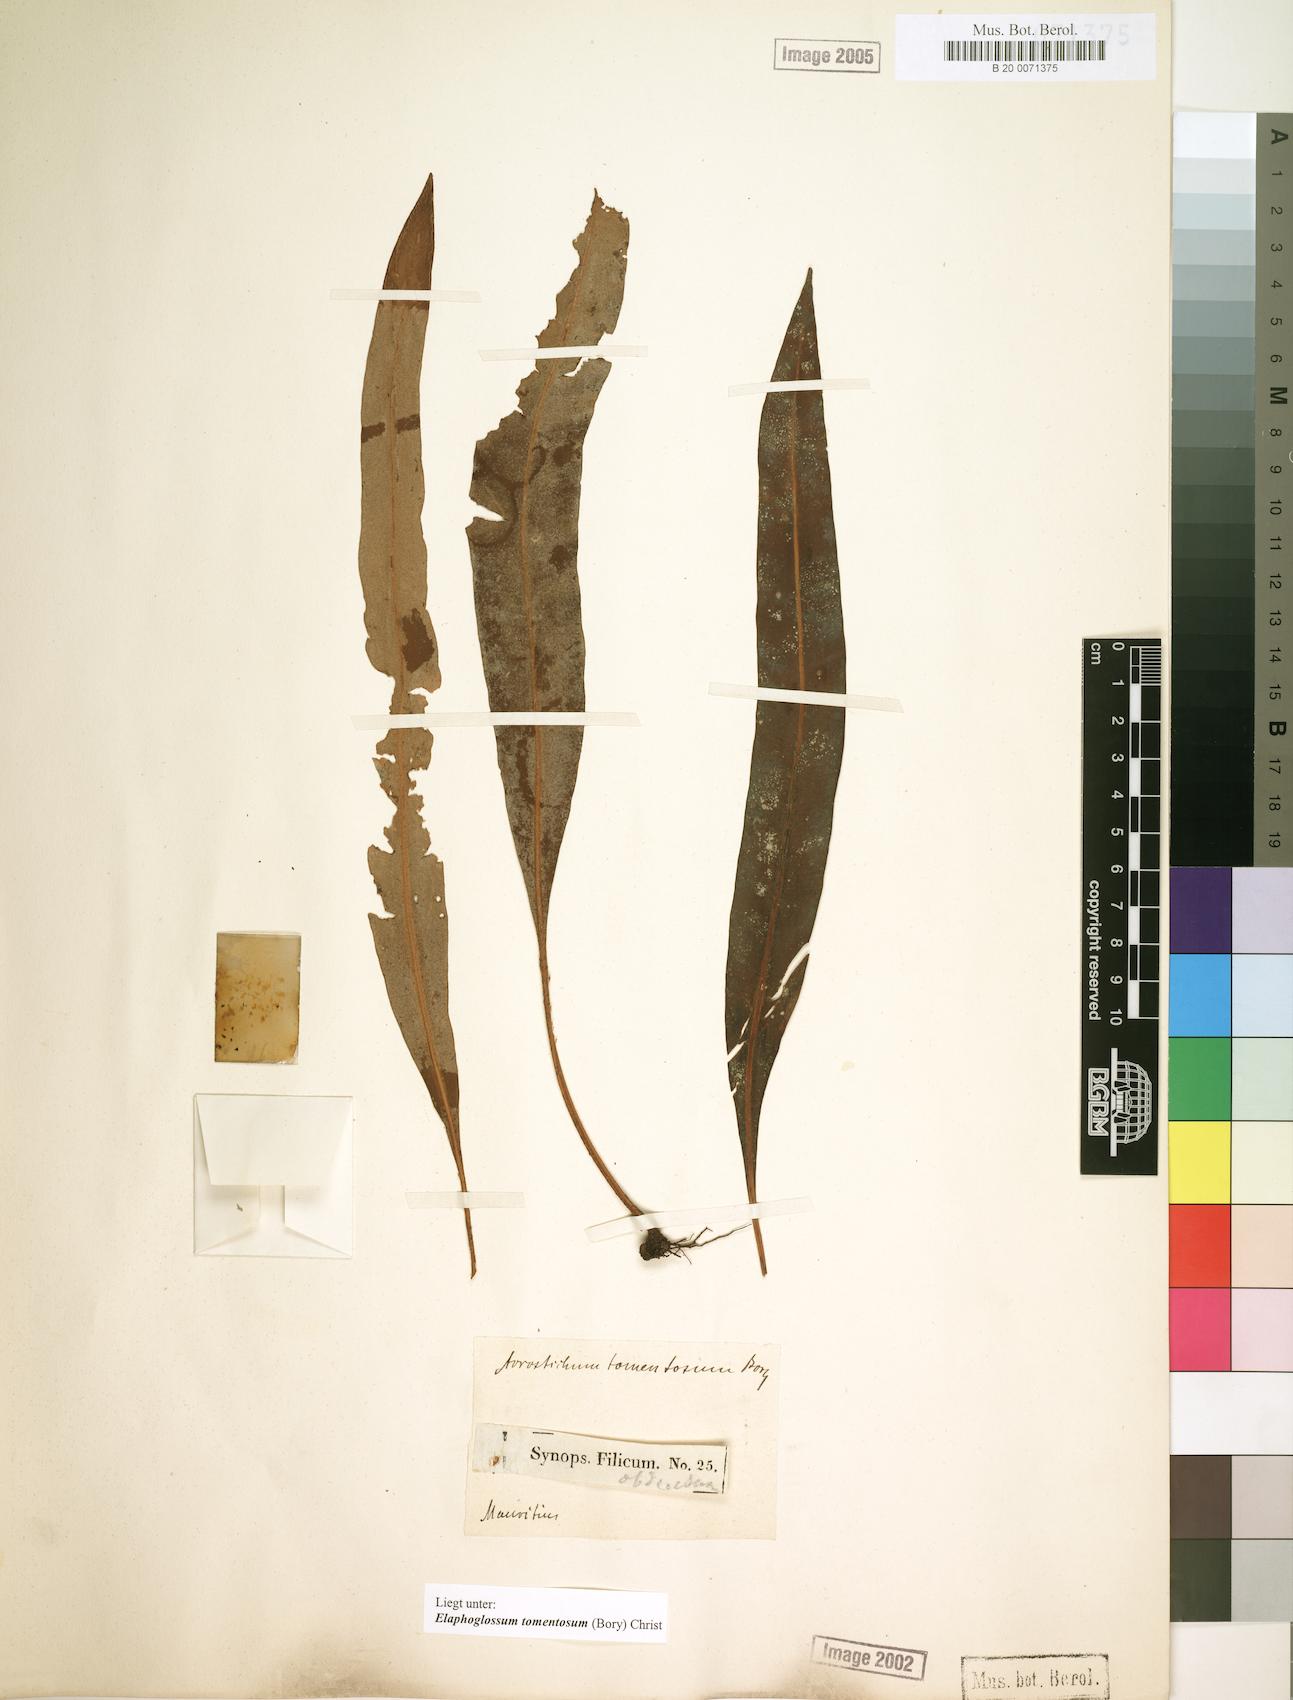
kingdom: Plantae
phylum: Tracheophyta
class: Polypodiopsida
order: Polypodiales
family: Dryopteridaceae
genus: Elaphoglossum
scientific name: Elaphoglossum tomentosum
